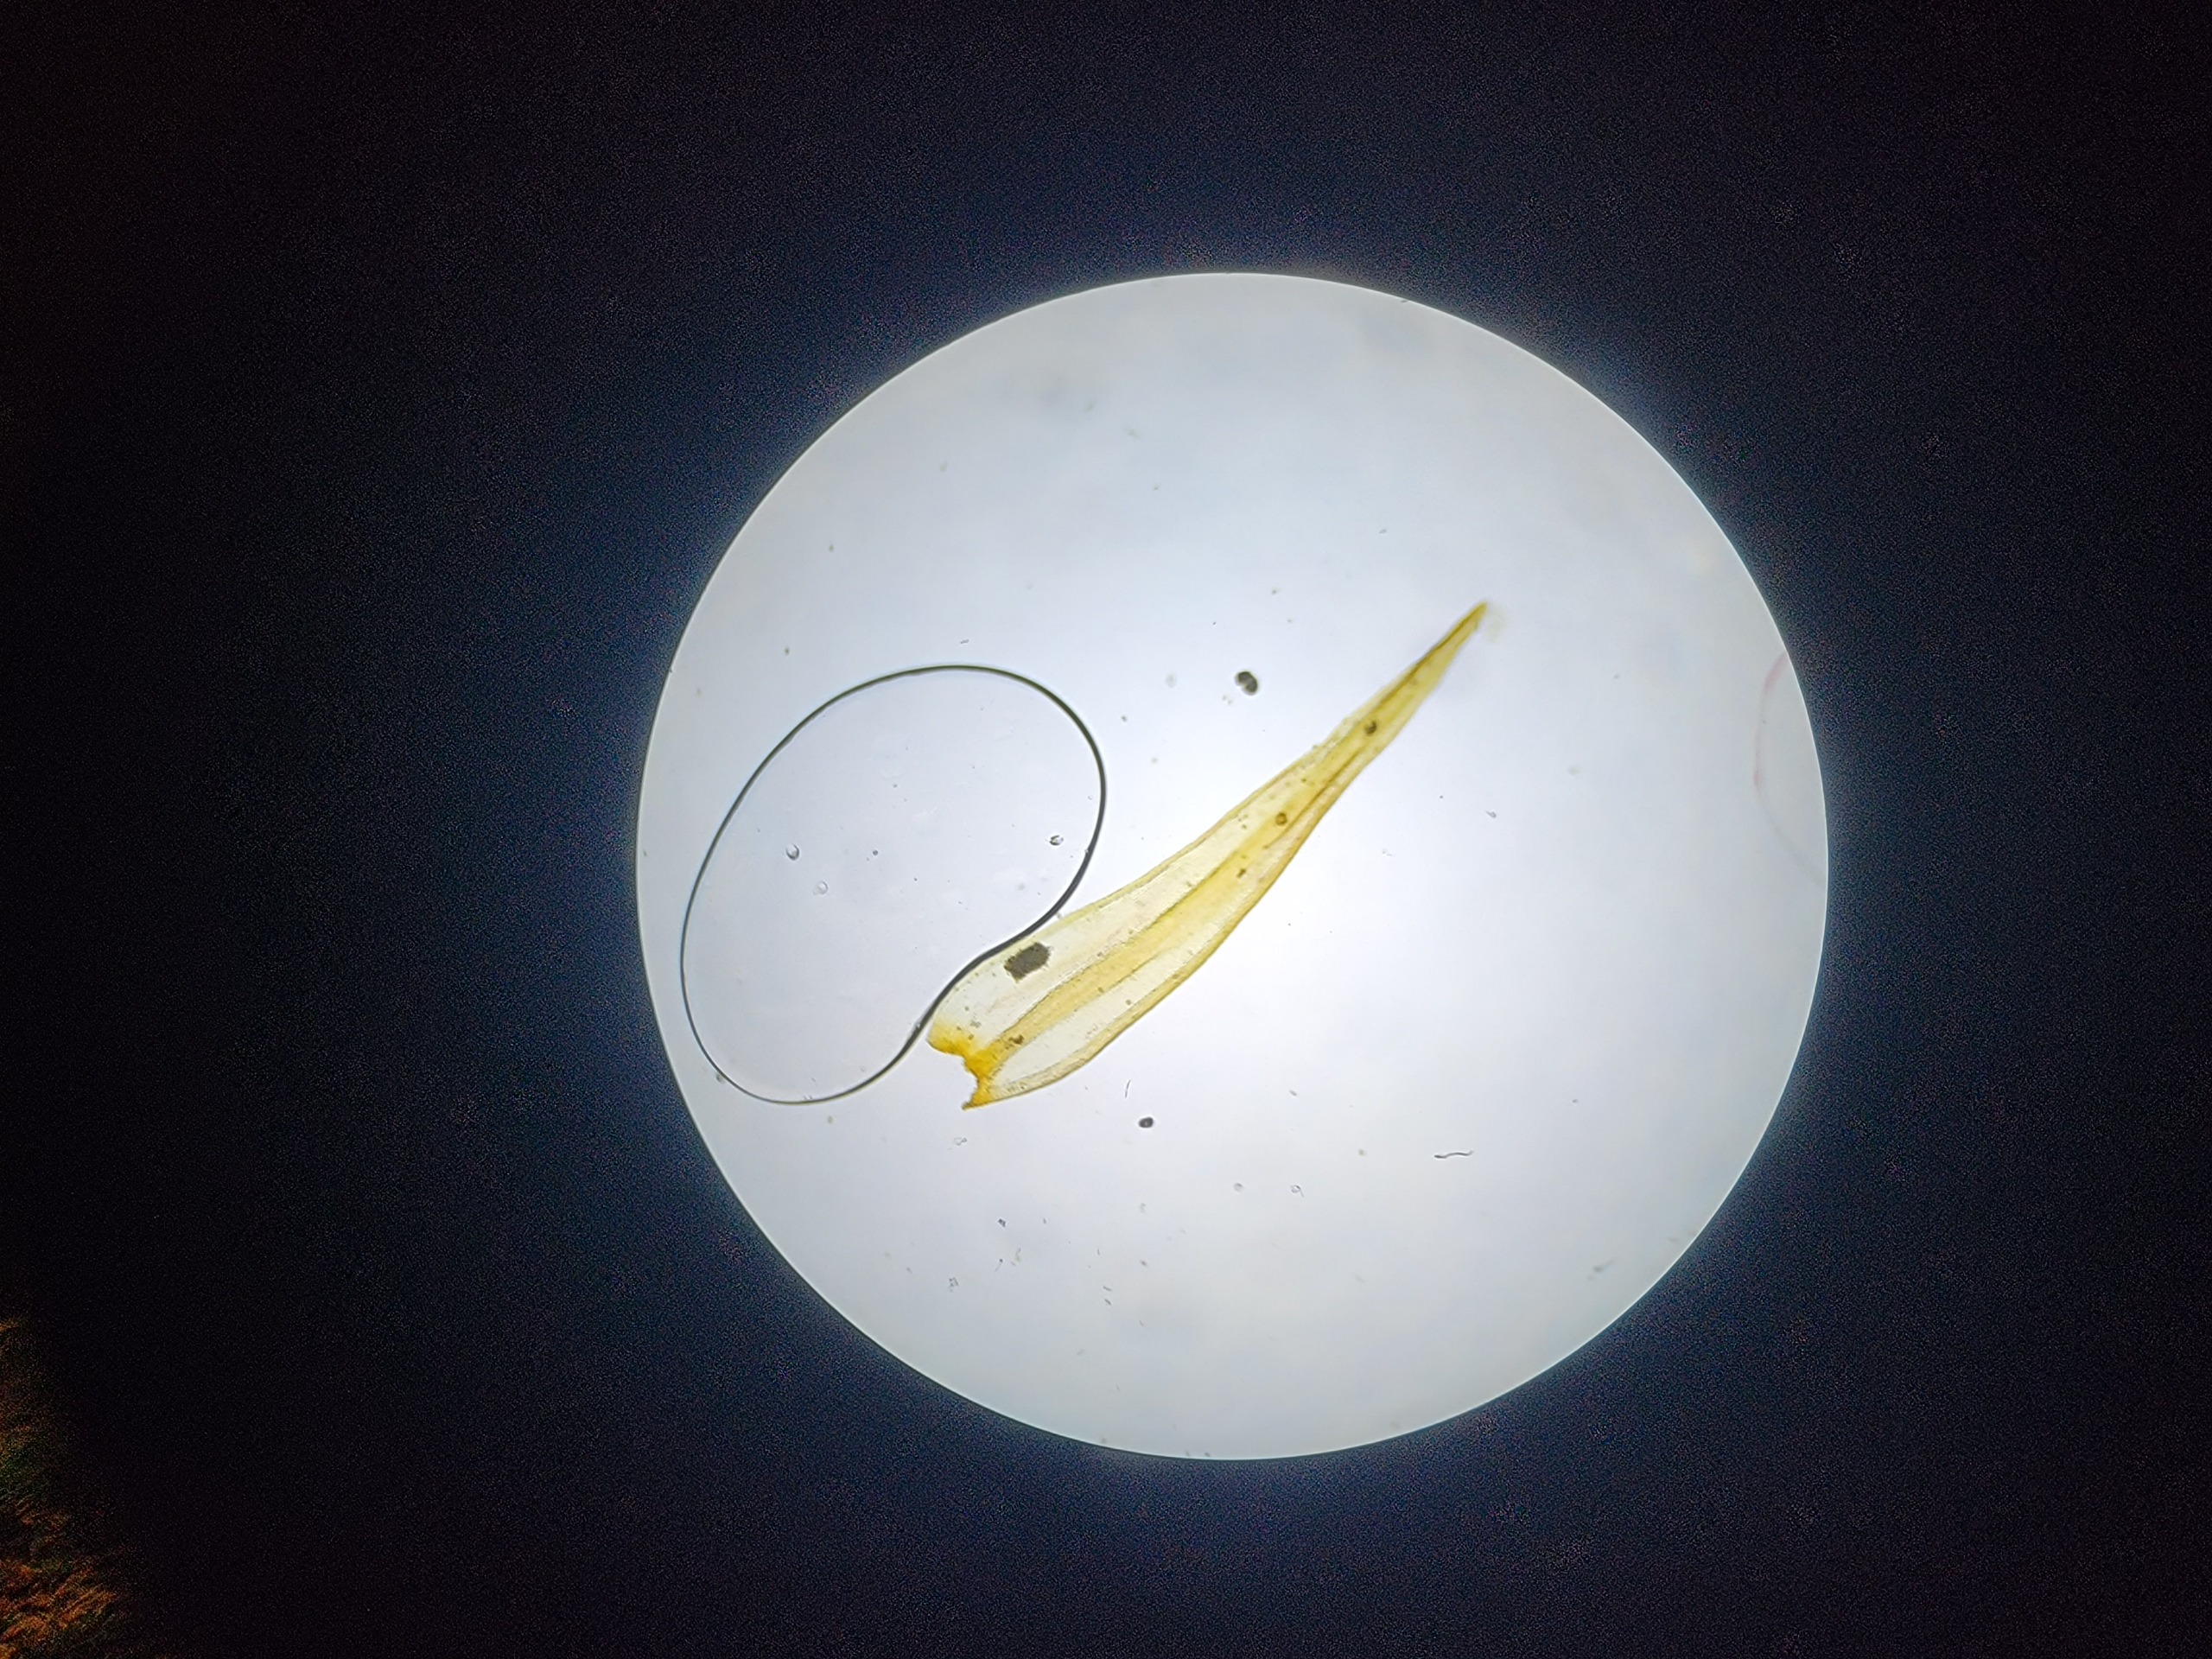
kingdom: Plantae
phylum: Bryophyta
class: Bryopsida
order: Grimmiales
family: Grimmiaceae
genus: Bucklandiella
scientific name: Bucklandiella obtusa
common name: Kyst-børstemos
